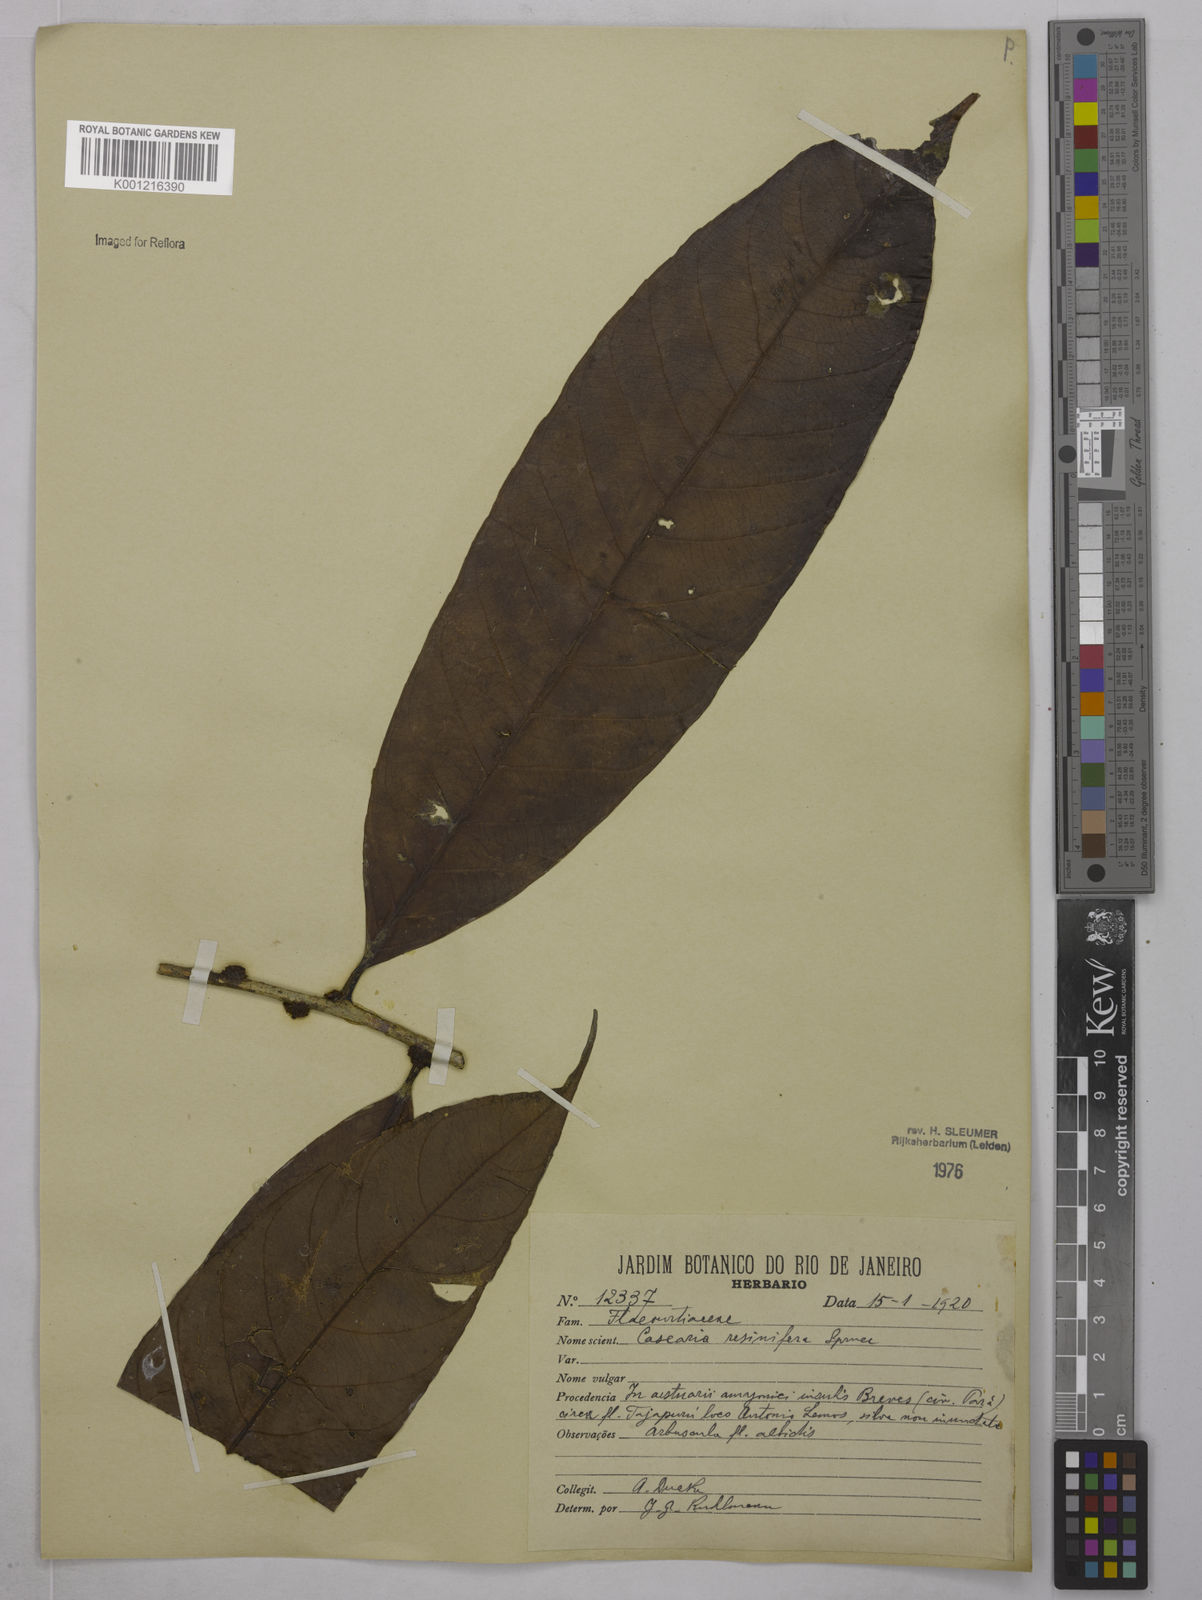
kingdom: Plantae
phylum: Tracheophyta
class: Magnoliopsida
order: Malpighiales
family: Salicaceae
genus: Casearia
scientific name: Casearia resinifera
